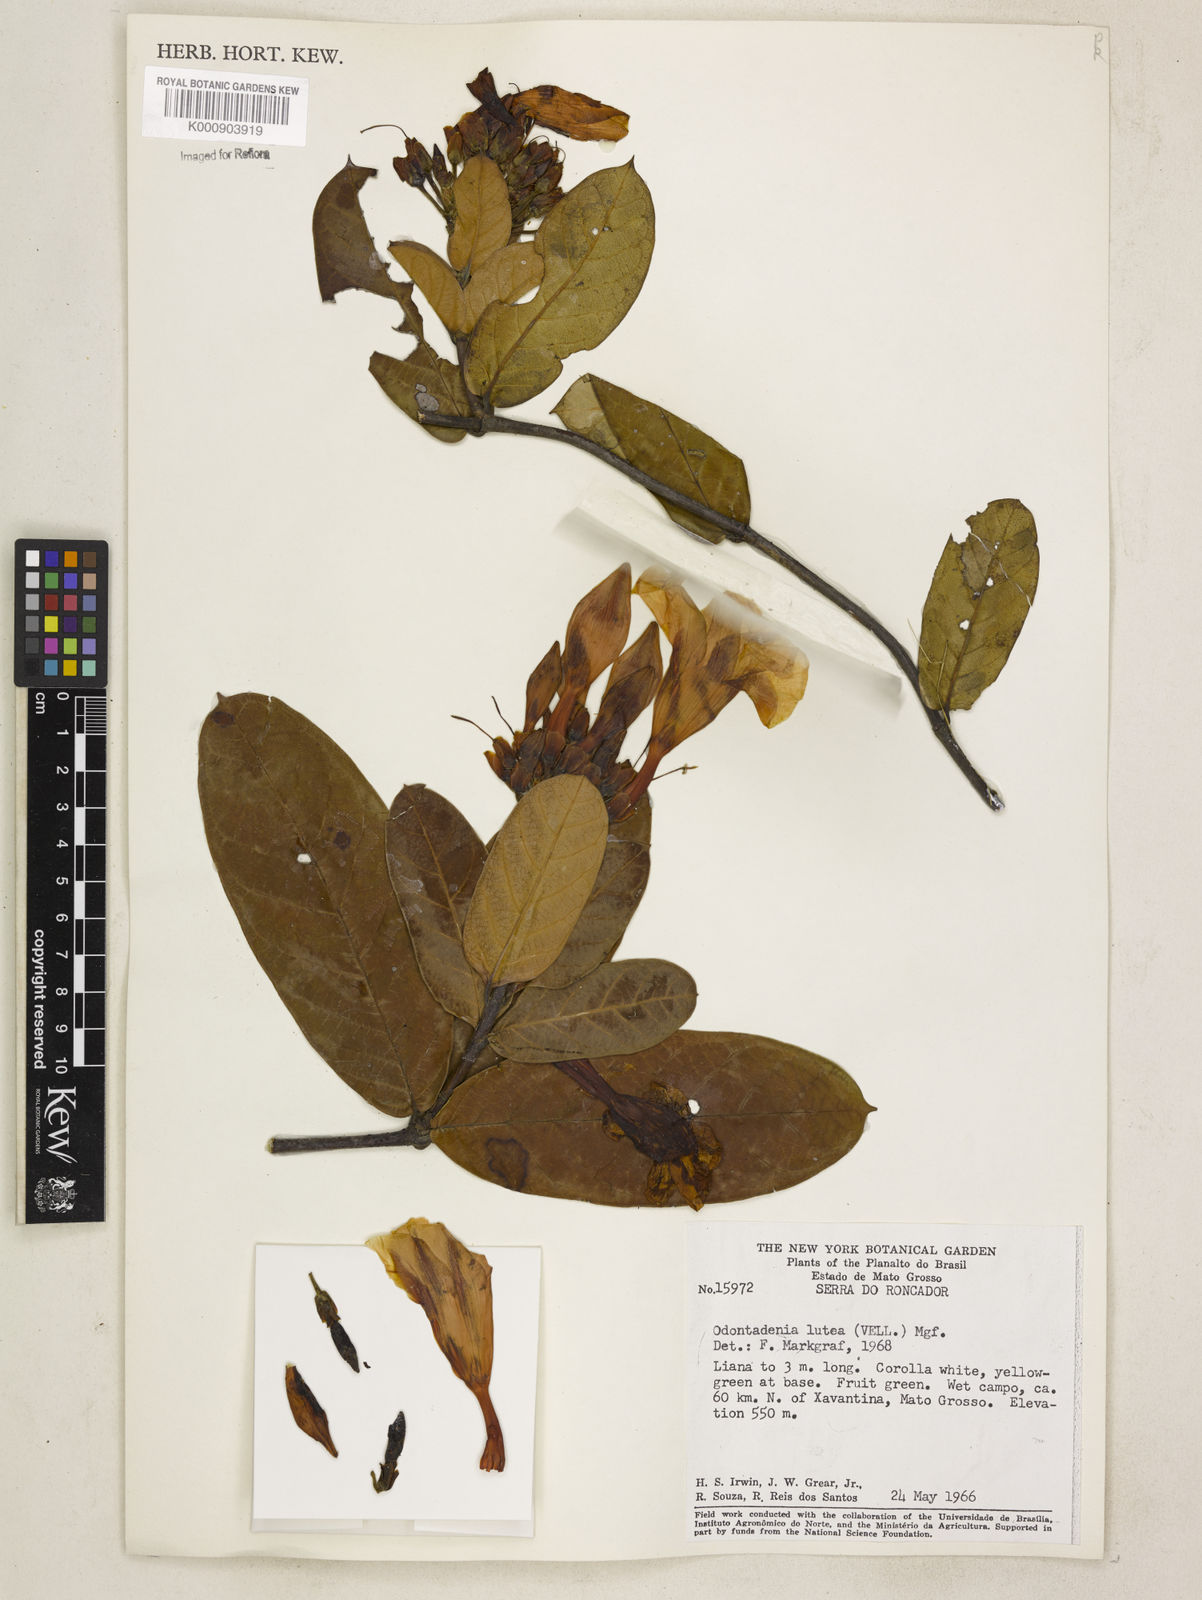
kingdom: Plantae
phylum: Tracheophyta
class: Magnoliopsida
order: Gentianales
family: Apocynaceae
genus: Odontadenia
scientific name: Odontadenia lutea
